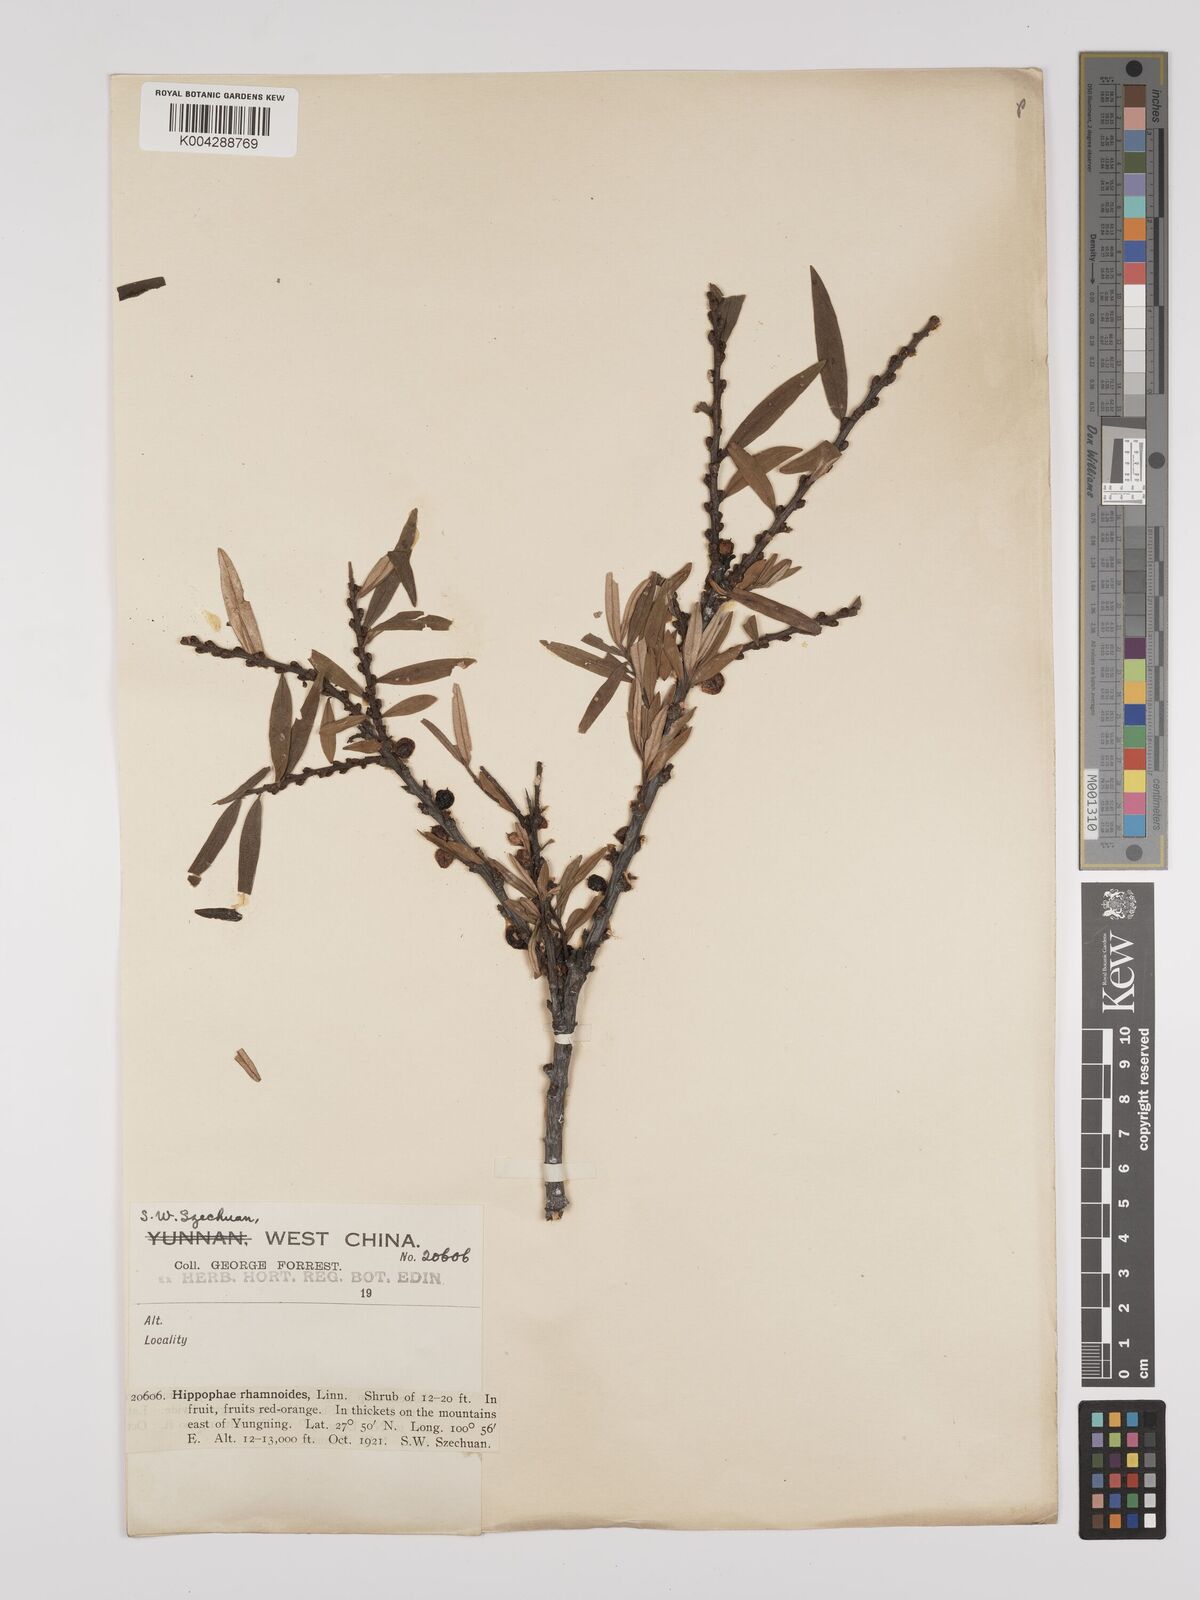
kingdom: Plantae
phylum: Tracheophyta
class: Magnoliopsida
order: Rosales
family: Elaeagnaceae
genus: Hippophae
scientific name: Hippophae rhamnoides
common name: Sea-buckthorn
